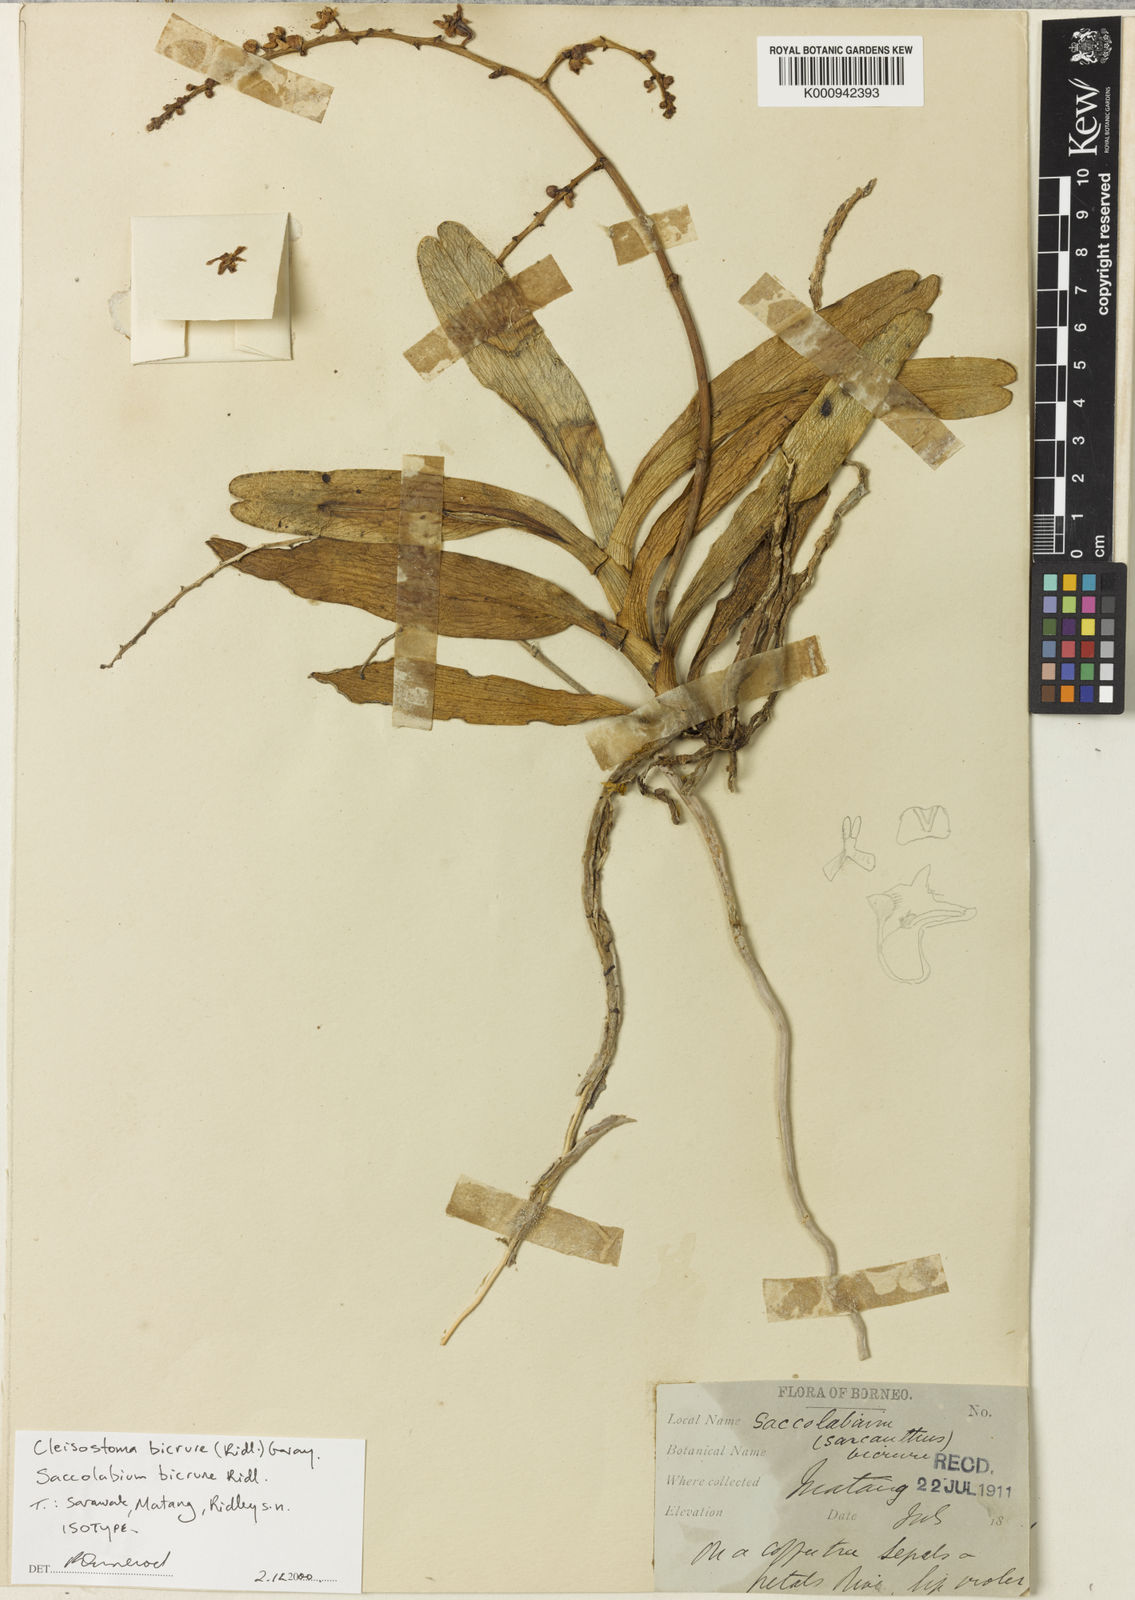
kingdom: Plantae
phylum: Tracheophyta
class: Liliopsida
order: Asparagales
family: Orchidaceae
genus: Cleisostoma
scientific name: Cleisostoma bicrure
